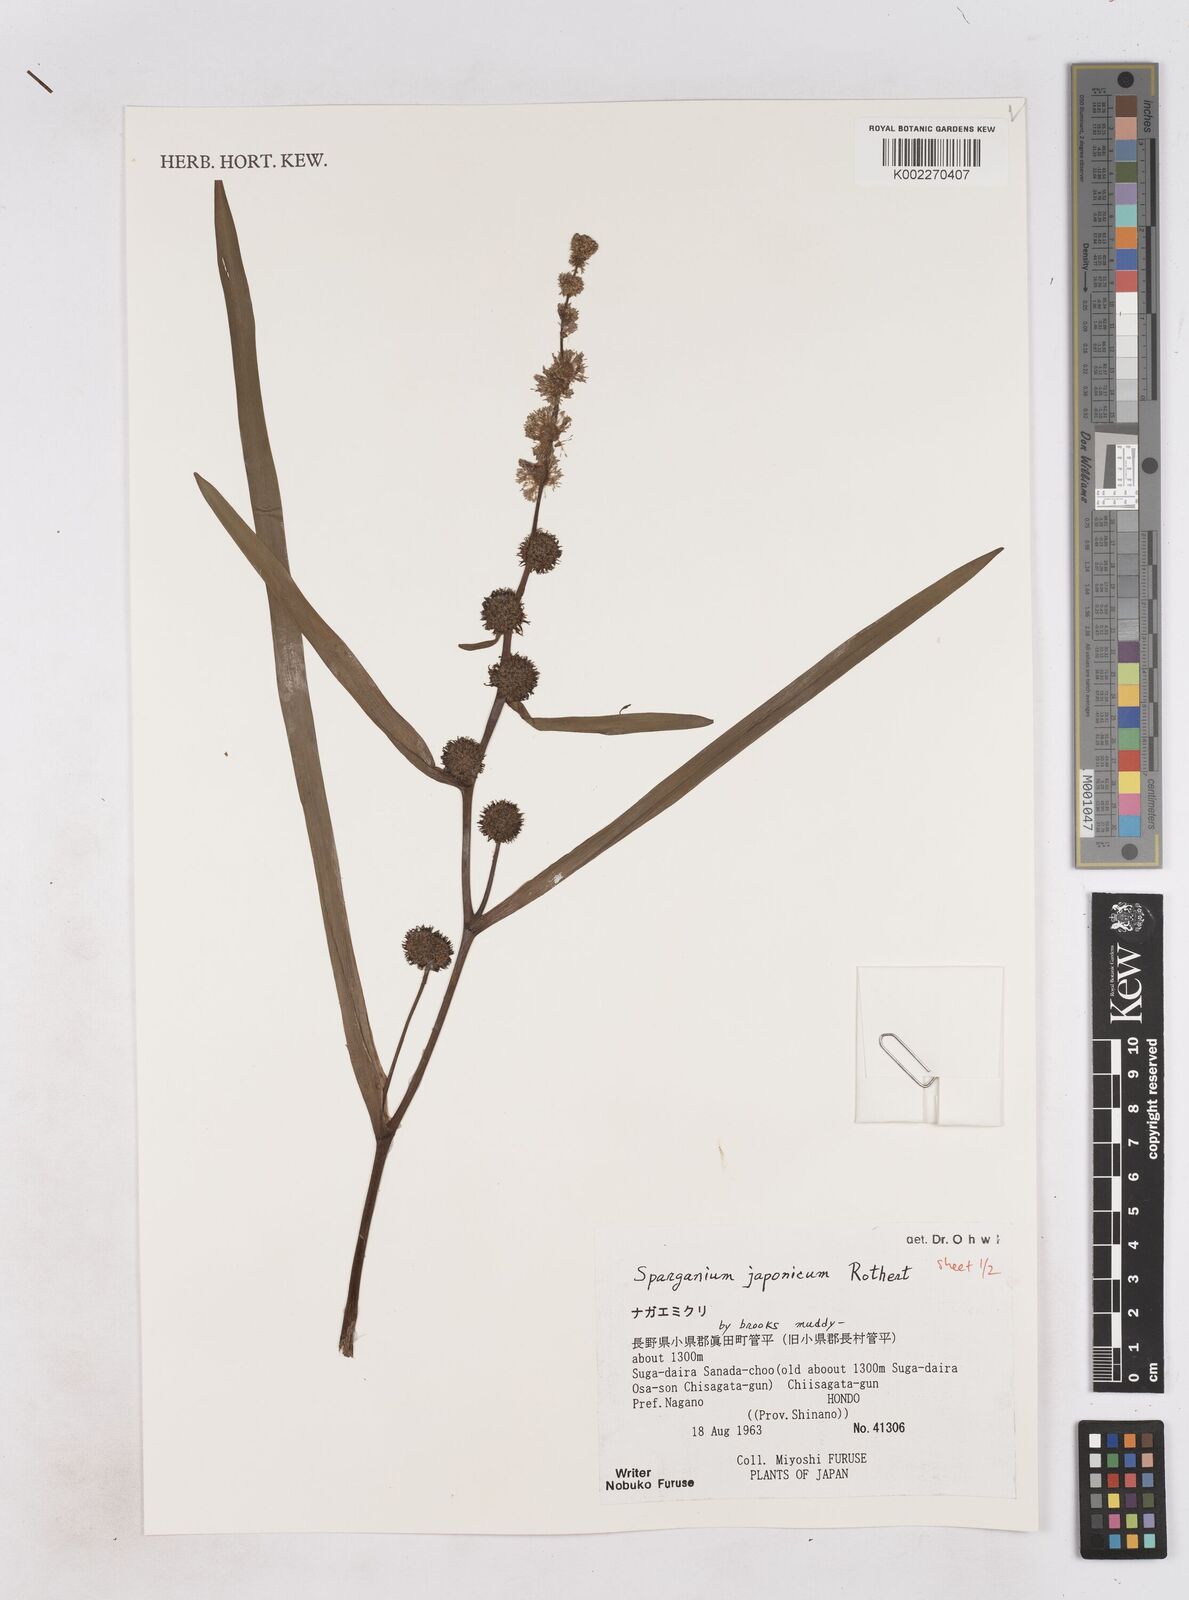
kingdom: Plantae
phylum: Tracheophyta
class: Liliopsida
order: Poales
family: Typhaceae
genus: Sparganium
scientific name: Sparganium japonicum
